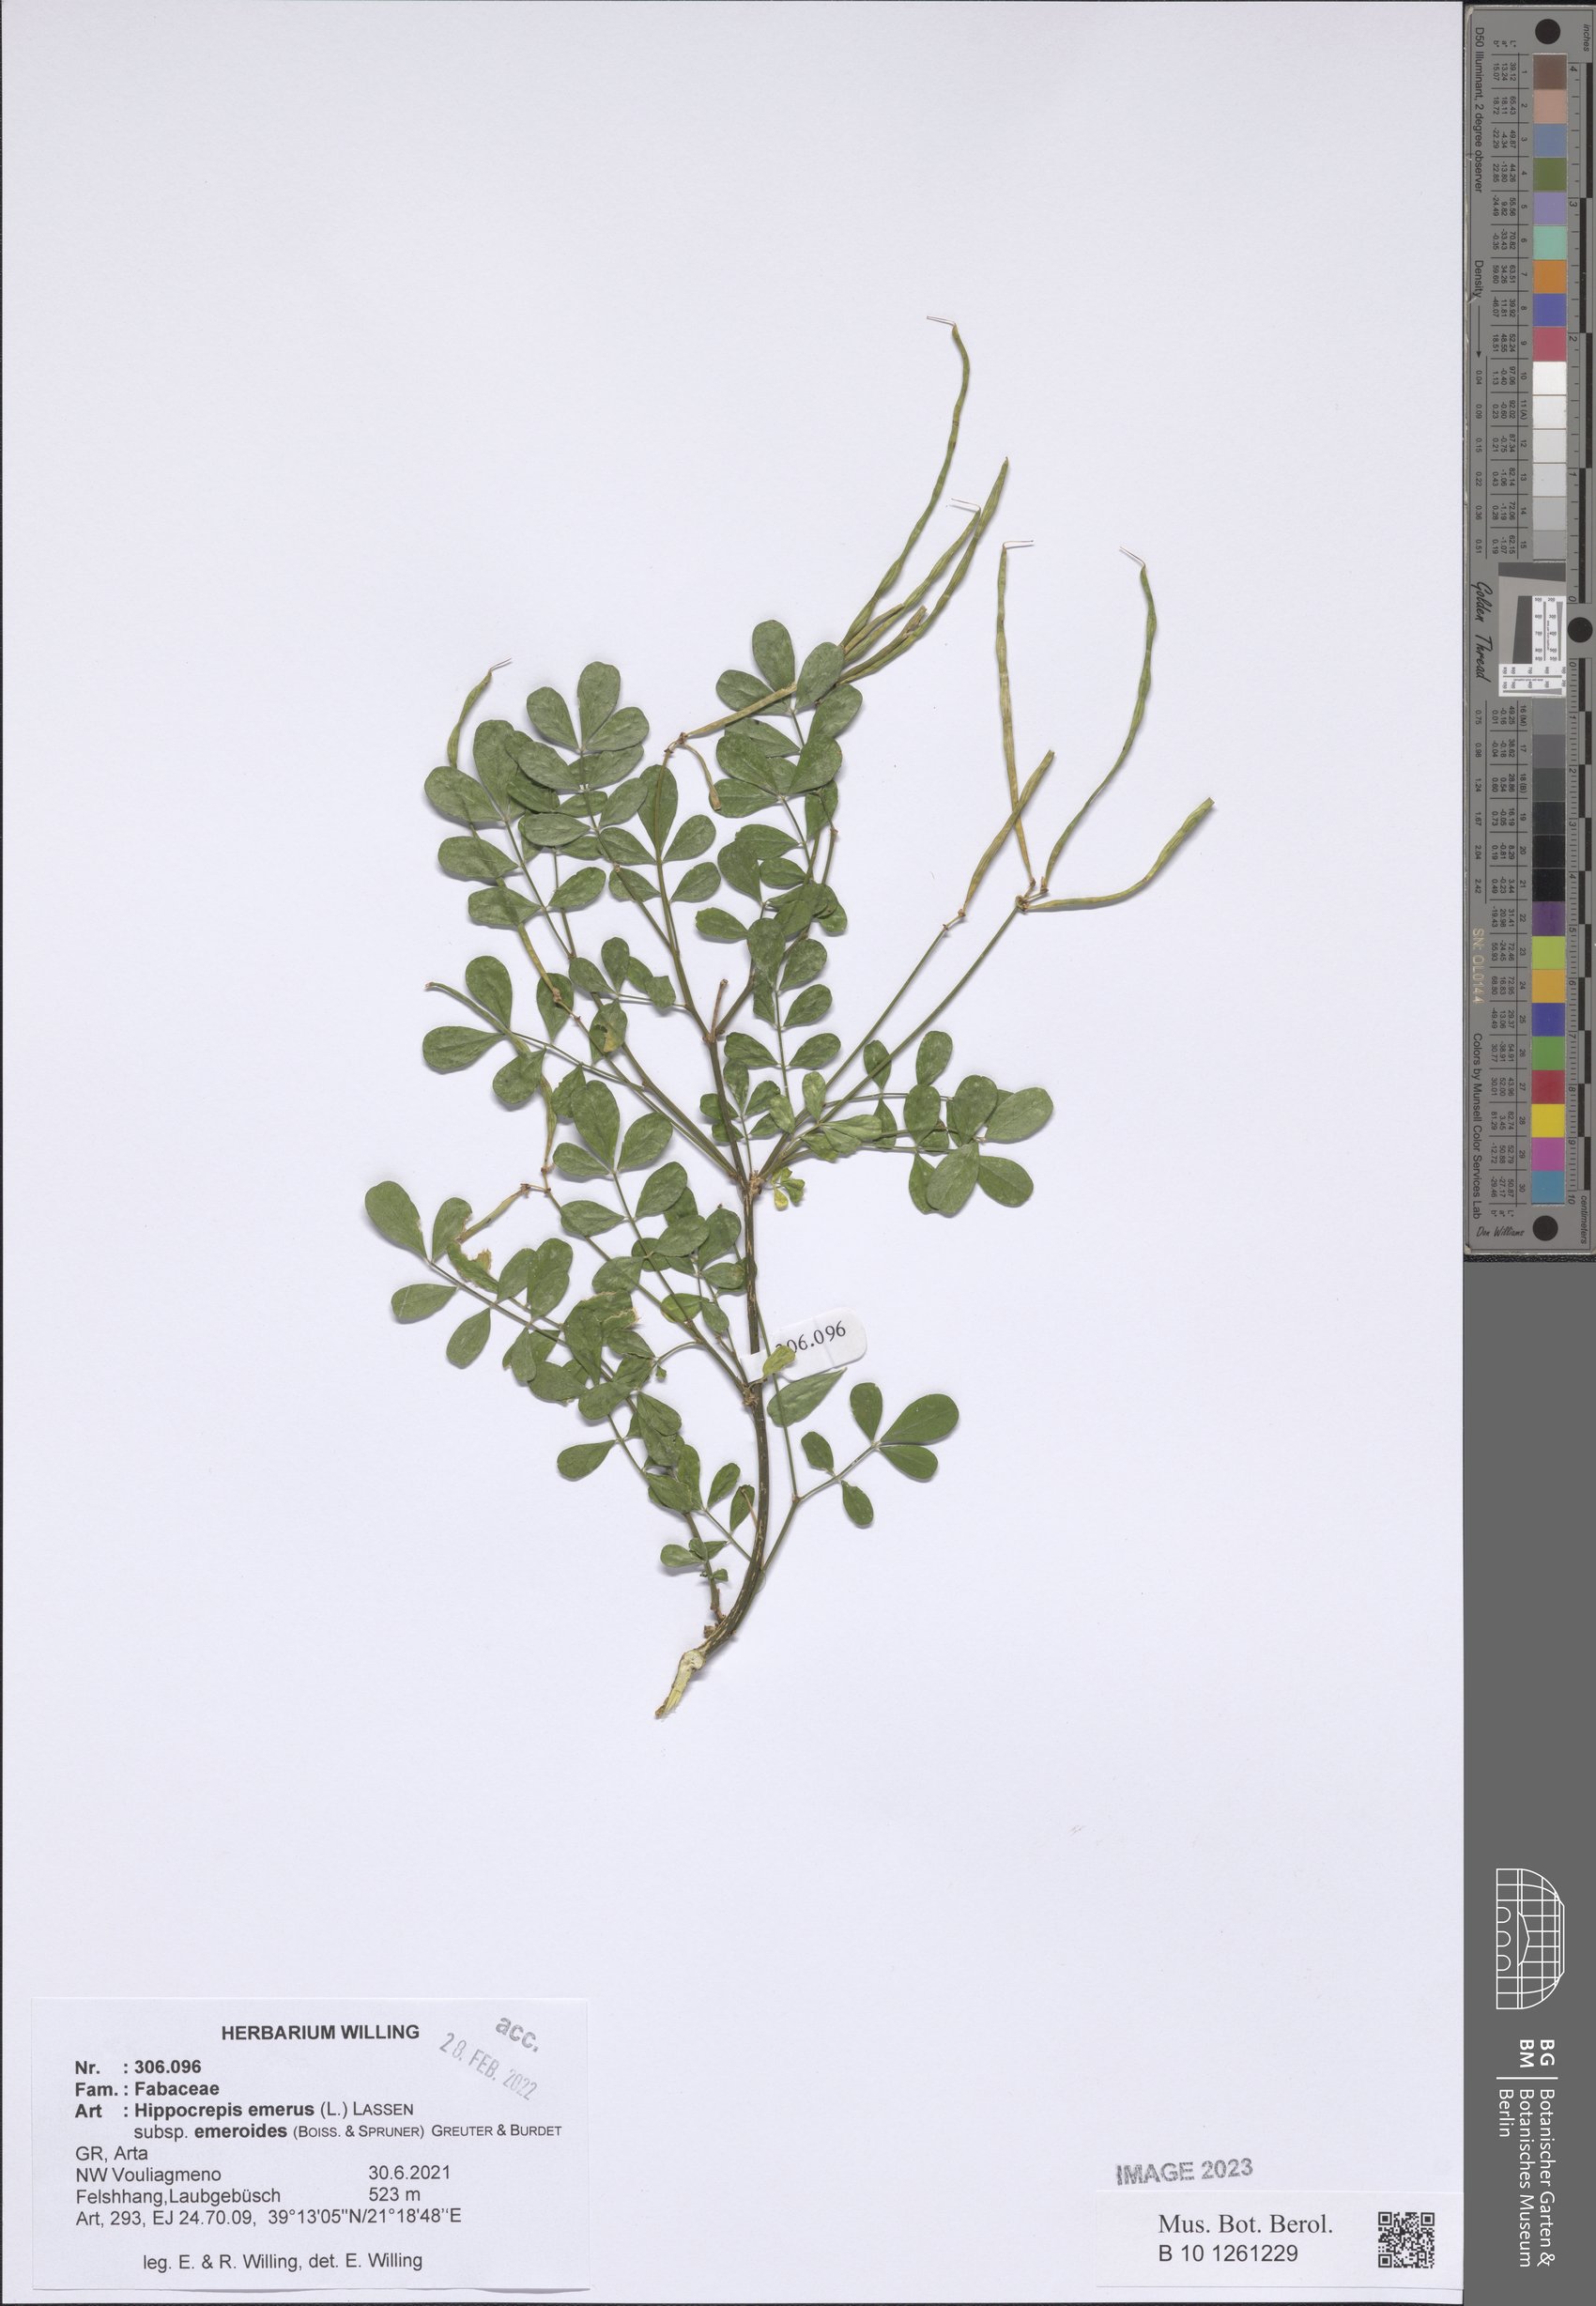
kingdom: Plantae
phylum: Tracheophyta
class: Magnoliopsida
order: Fabales
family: Fabaceae
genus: Hippocrepis
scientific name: Hippocrepis emerus
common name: Scorpion senna
